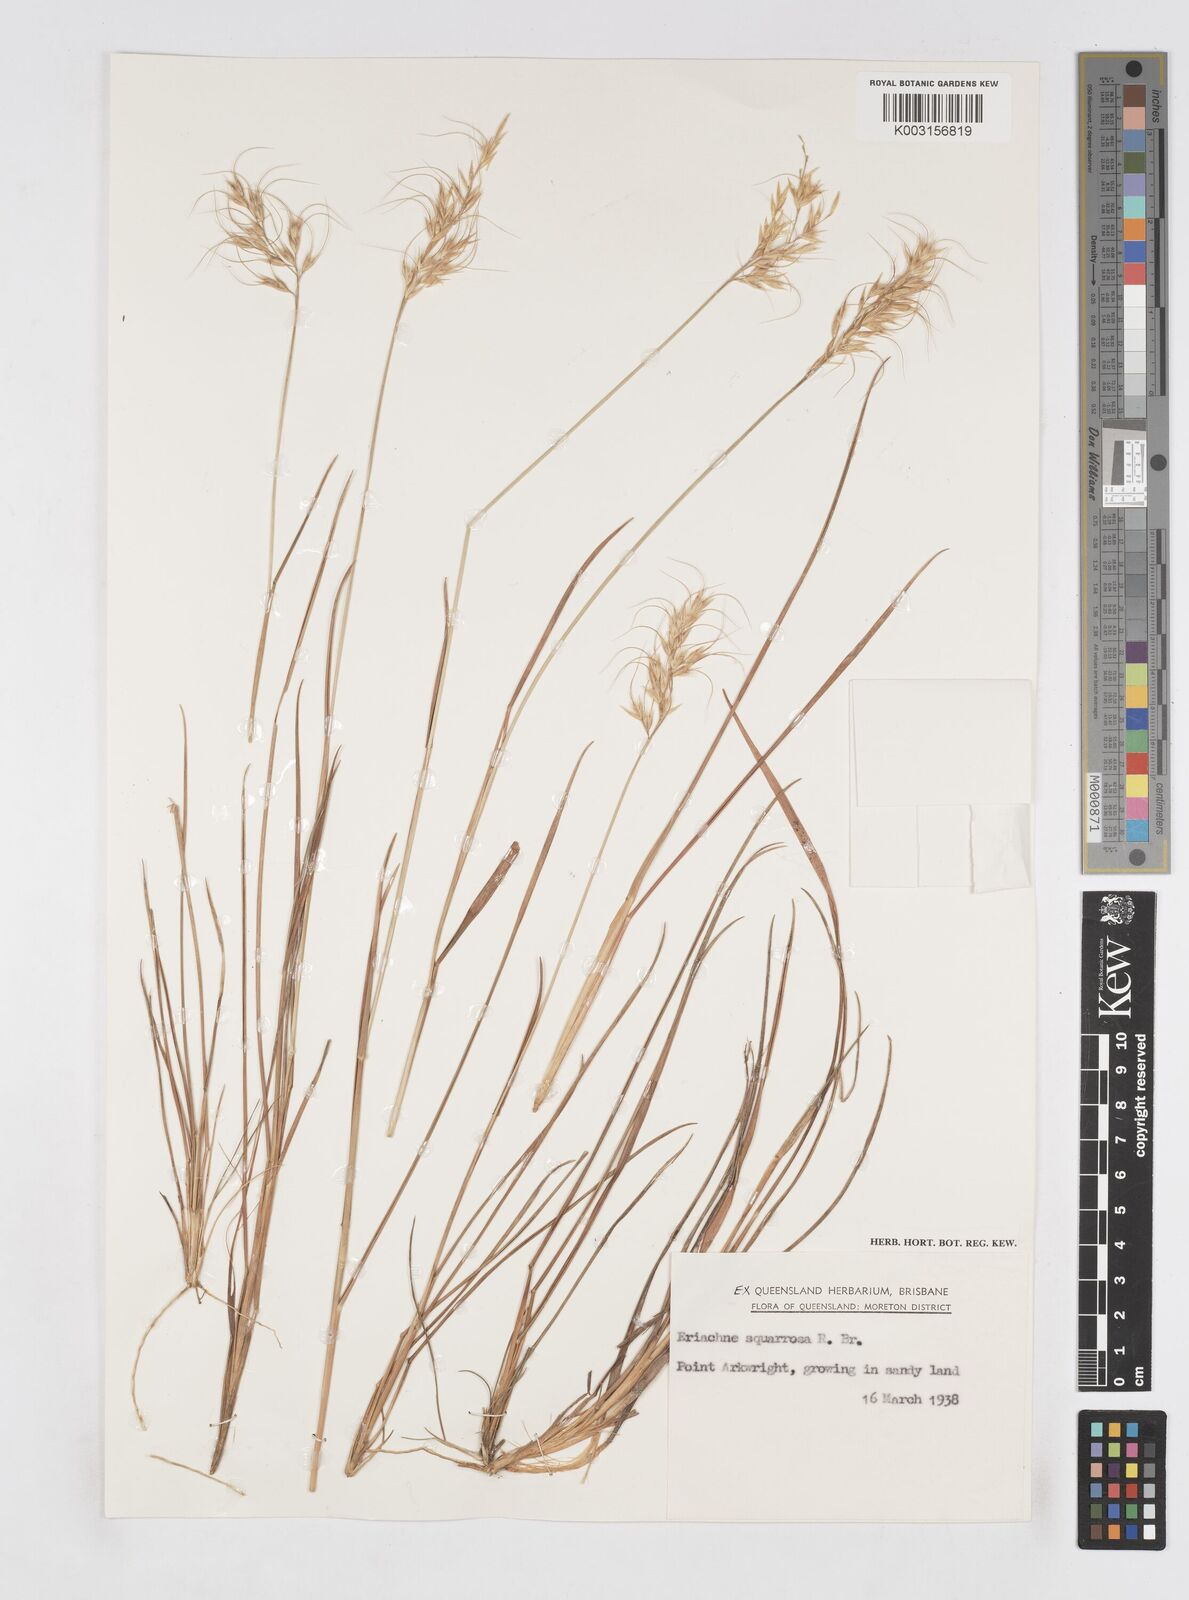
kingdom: Plantae
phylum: Tracheophyta
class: Liliopsida
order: Poales
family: Poaceae
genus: Eriachne
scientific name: Eriachne squarrosa
